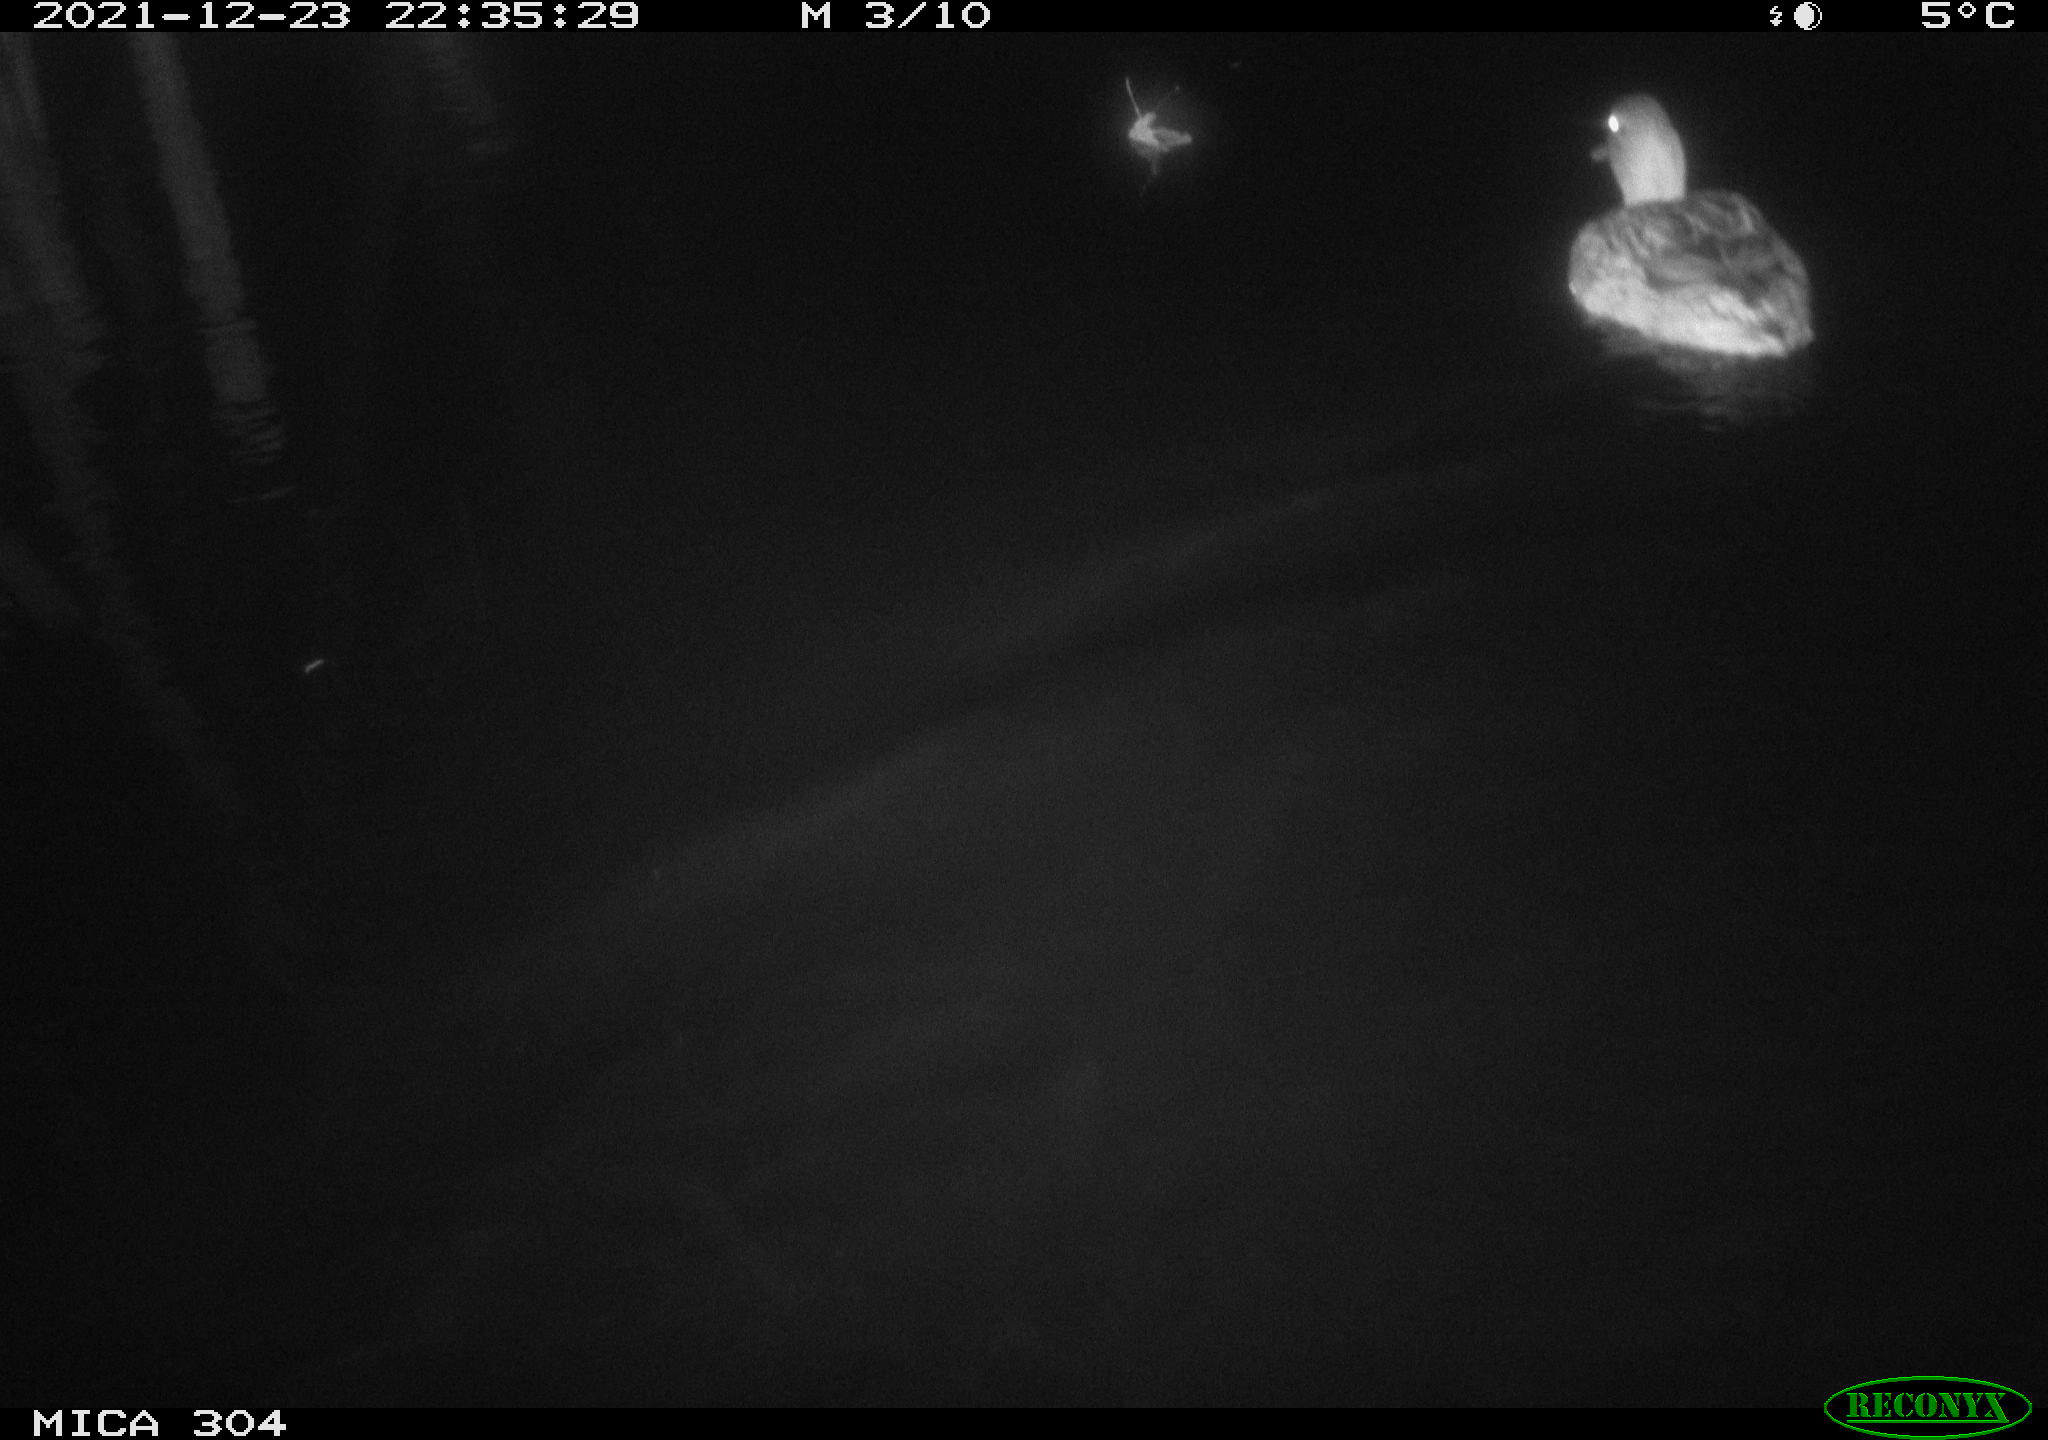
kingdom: Animalia
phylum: Chordata
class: Aves
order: Anseriformes
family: Anatidae
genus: Anas
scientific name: Anas
